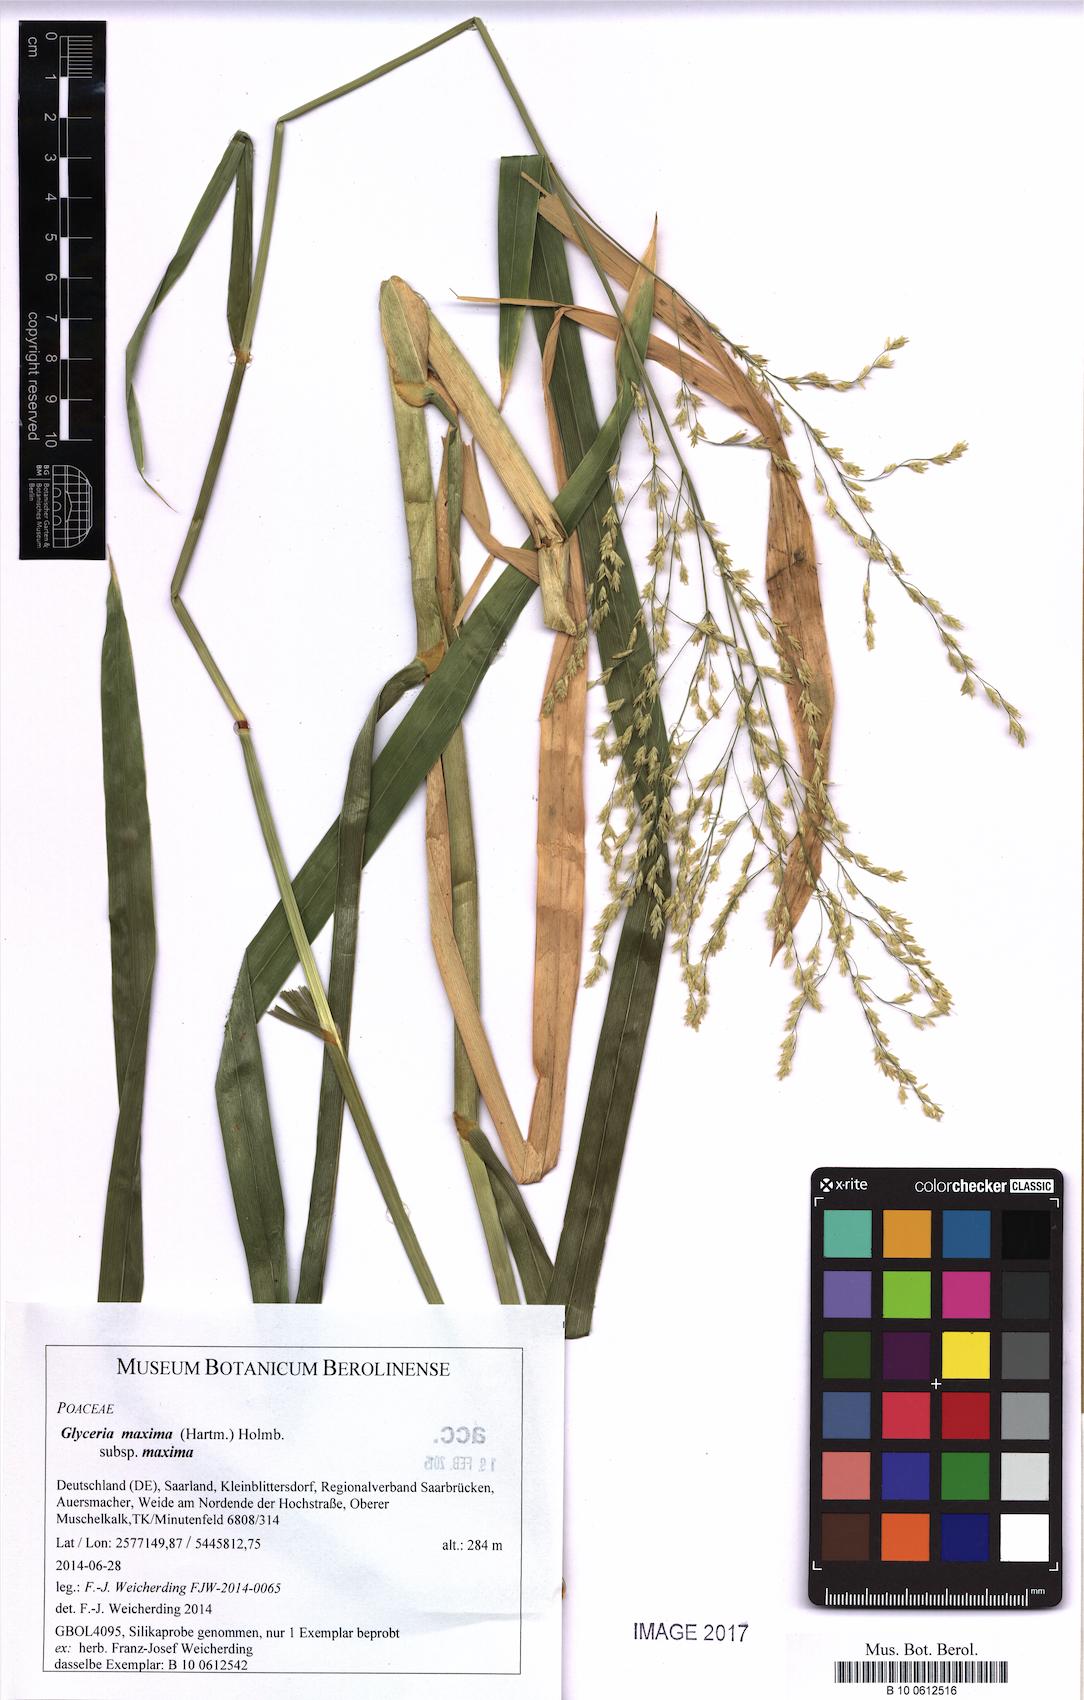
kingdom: Plantae
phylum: Tracheophyta
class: Liliopsida
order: Poales
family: Poaceae
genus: Glyceria
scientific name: Glyceria maxima
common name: Reed mannagrass
